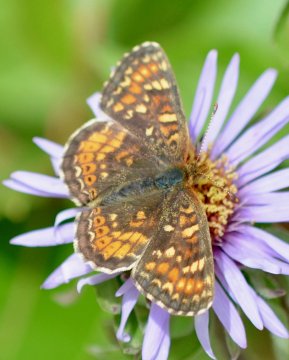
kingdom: Animalia
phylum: Arthropoda
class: Insecta
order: Lepidoptera
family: Nymphalidae
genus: Phyciodes
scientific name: Phyciodes tharos
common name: Field Crescent
